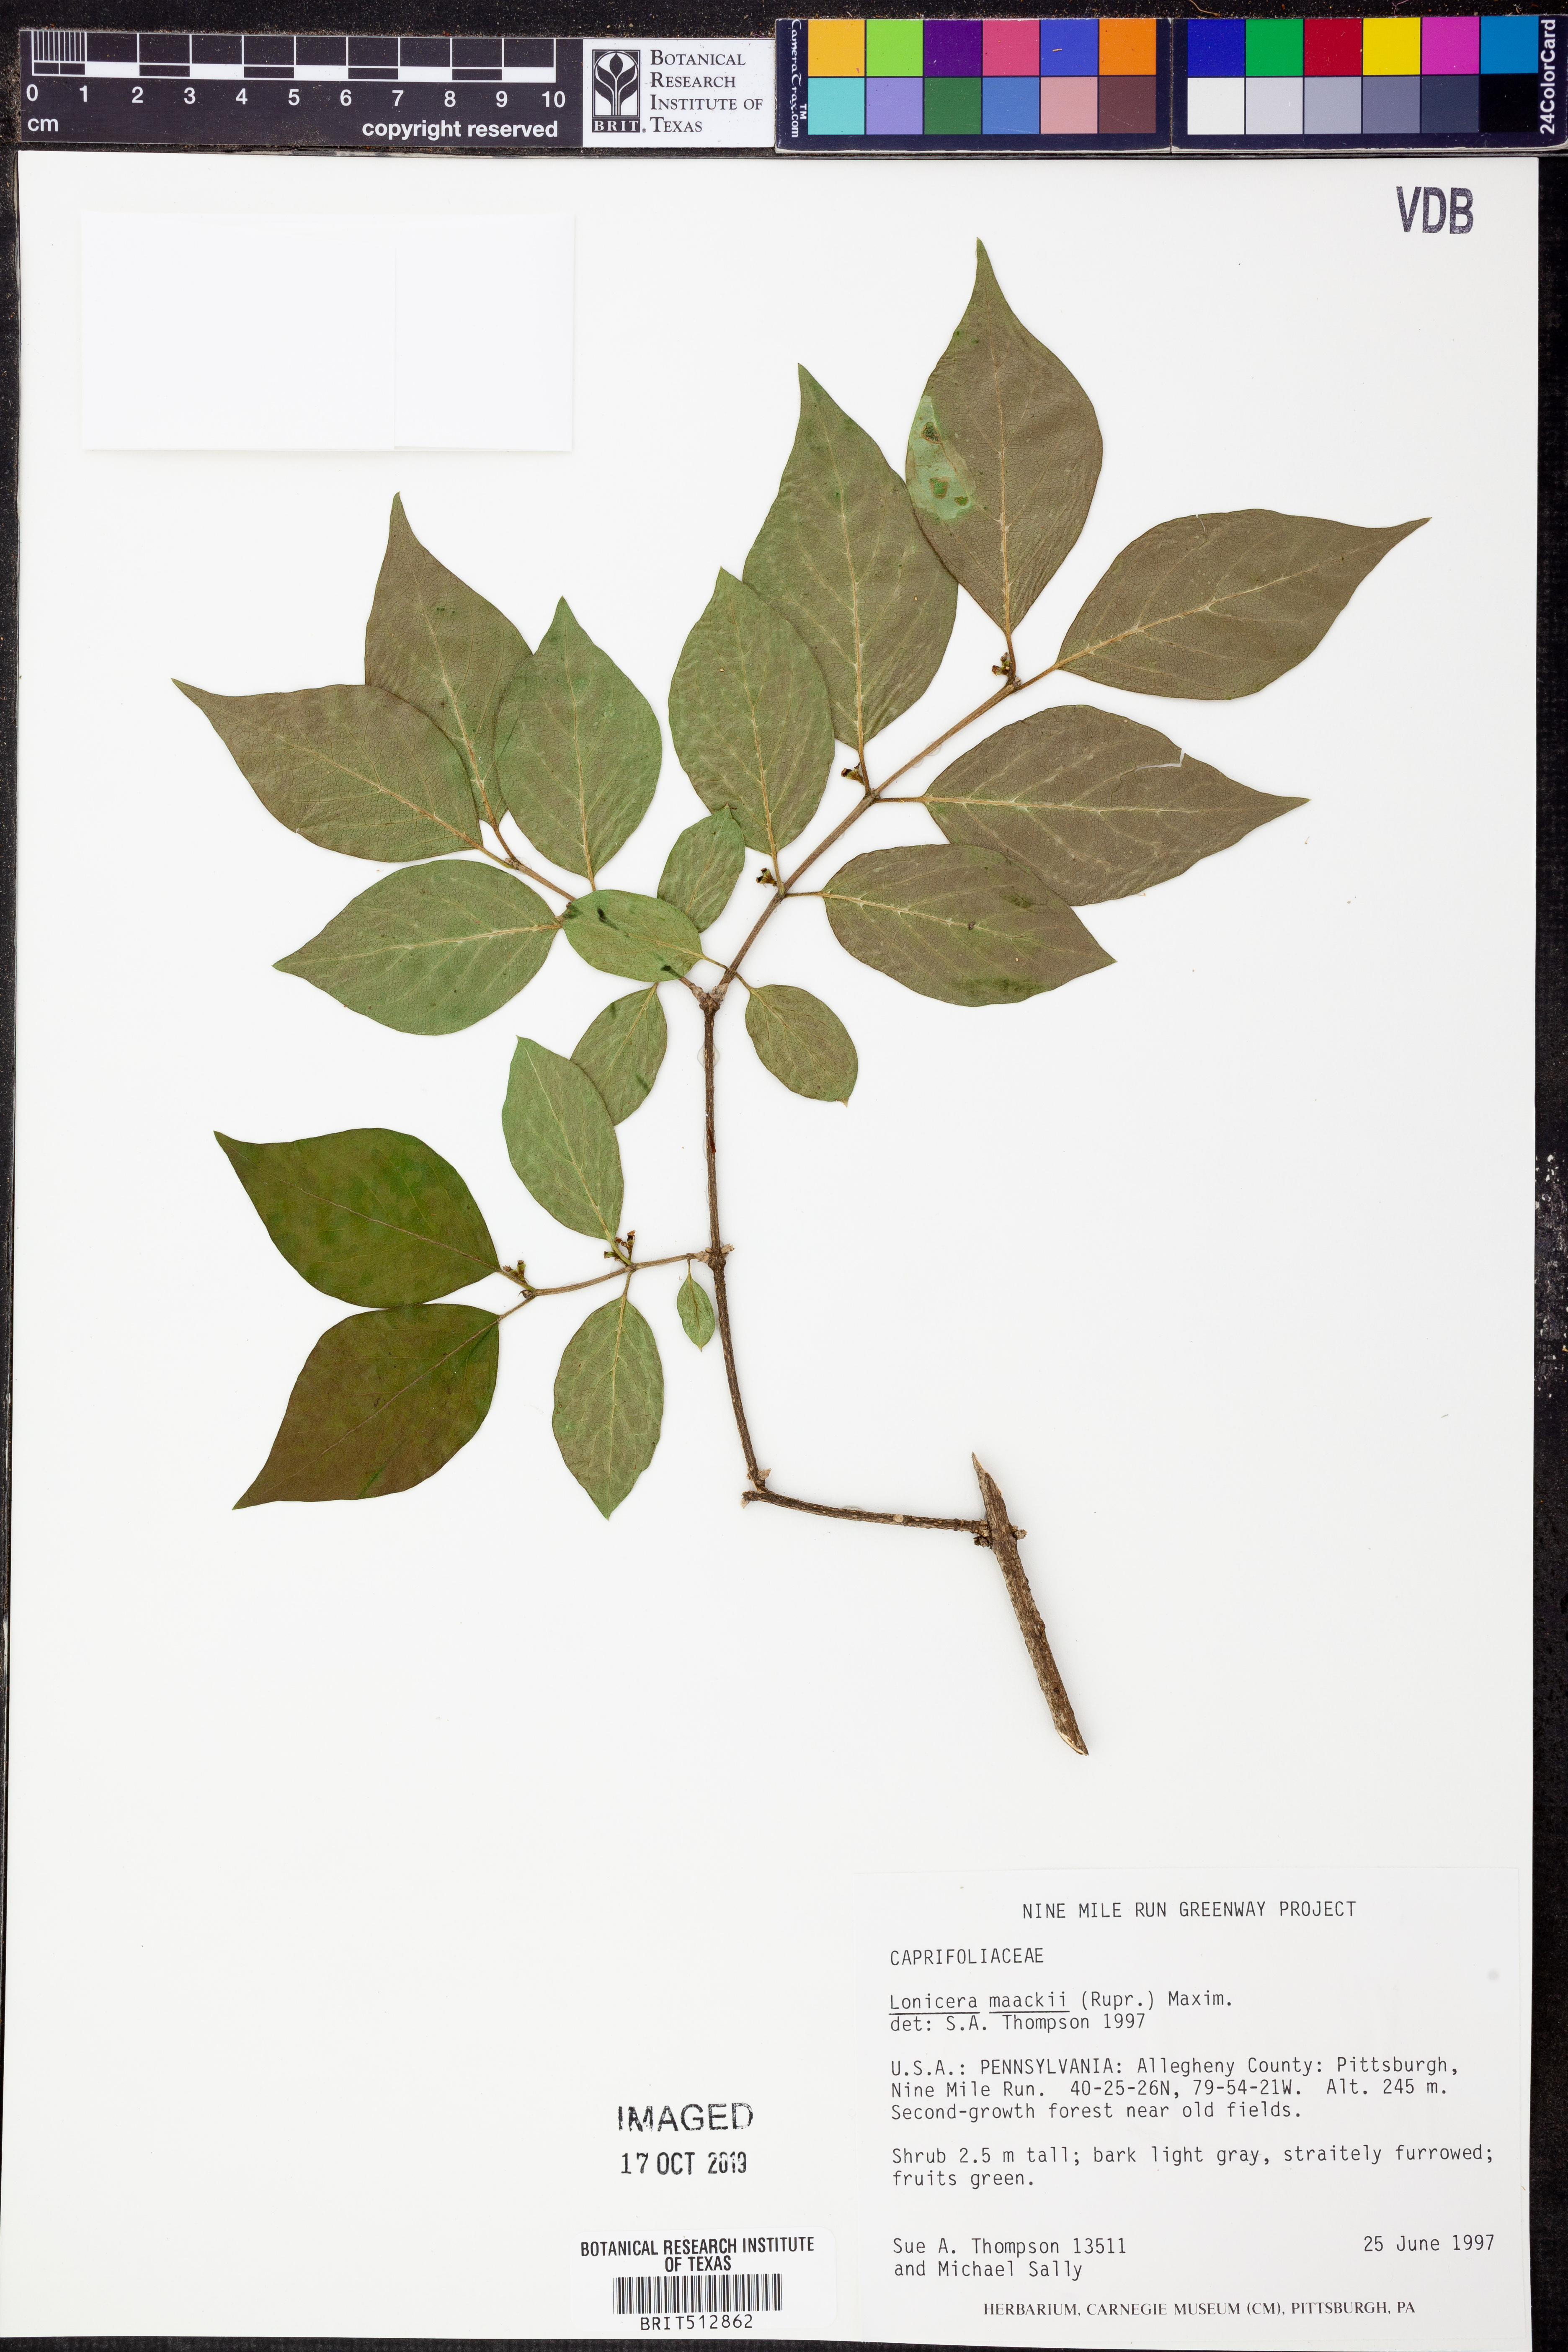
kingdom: Plantae
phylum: Tracheophyta
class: Magnoliopsida
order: Dipsacales
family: Caprifoliaceae
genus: Lonicera
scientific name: Lonicera maackii
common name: Amur honeysuckle
